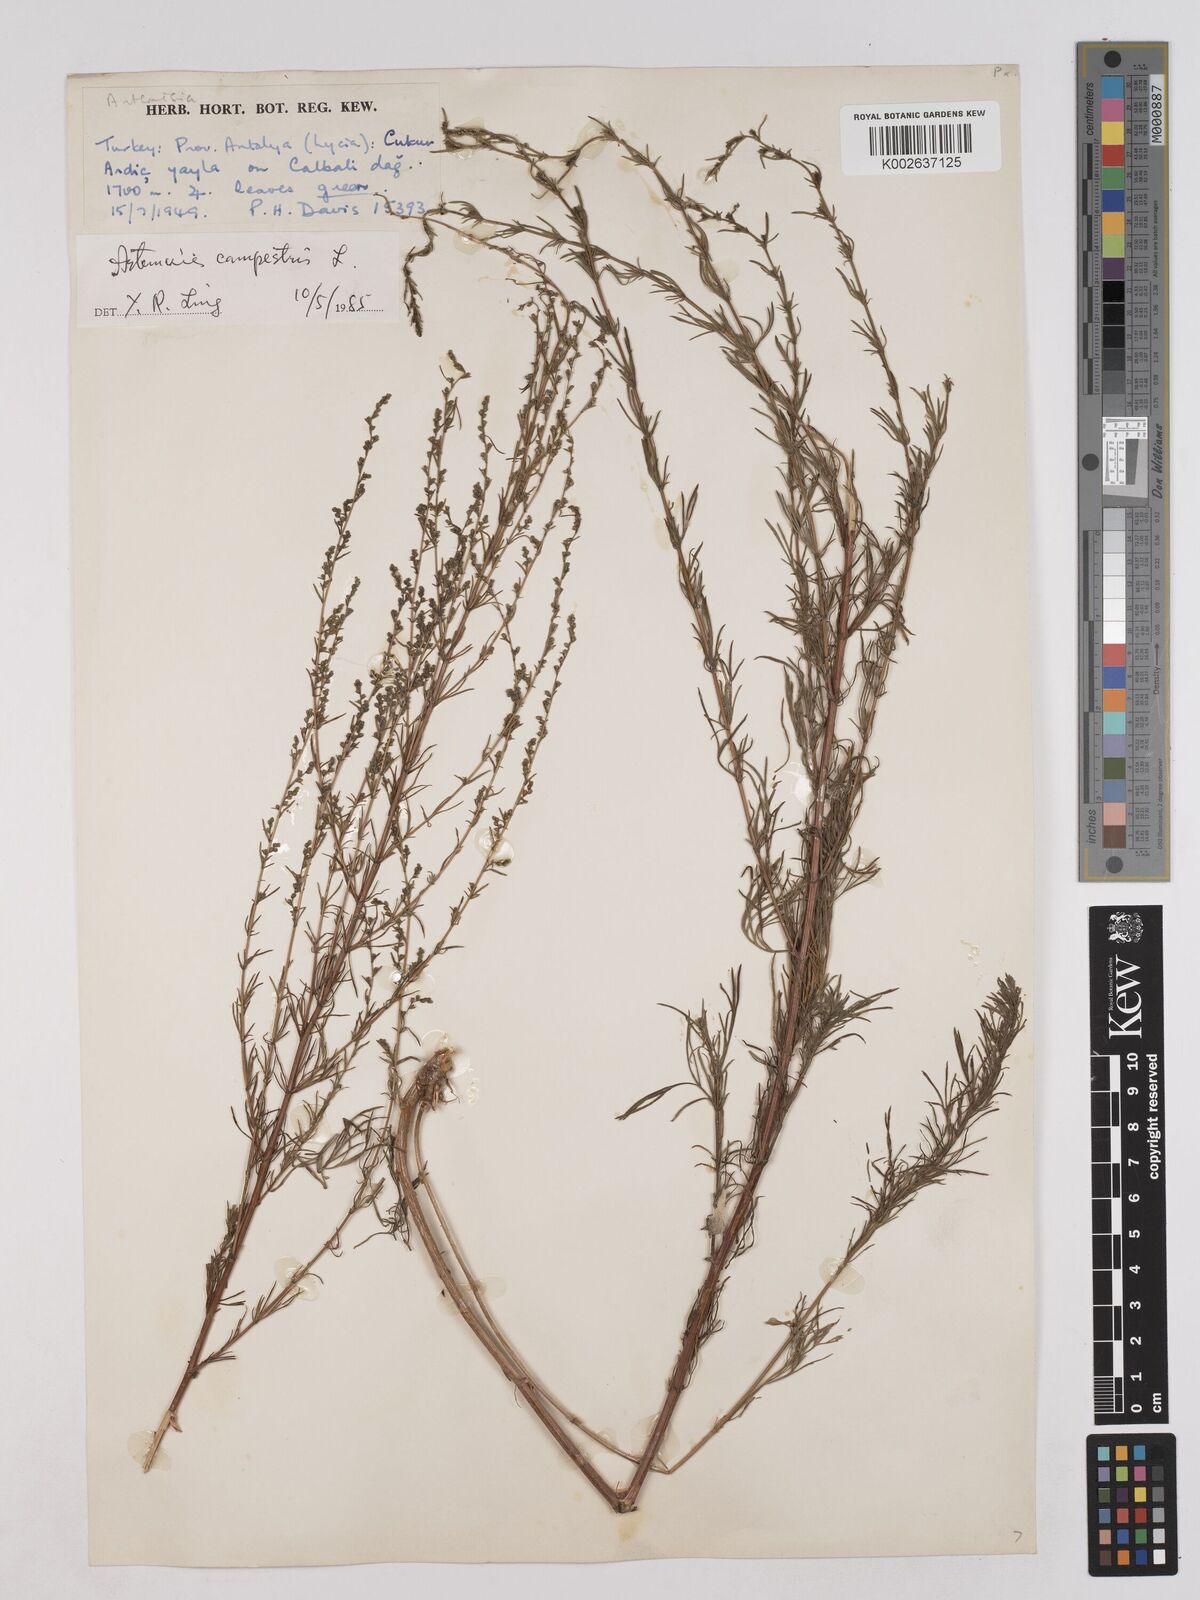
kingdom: Plantae
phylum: Tracheophyta
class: Magnoliopsida
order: Asterales
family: Asteraceae
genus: Artemisia
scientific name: Artemisia campestris
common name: Field wormwood
